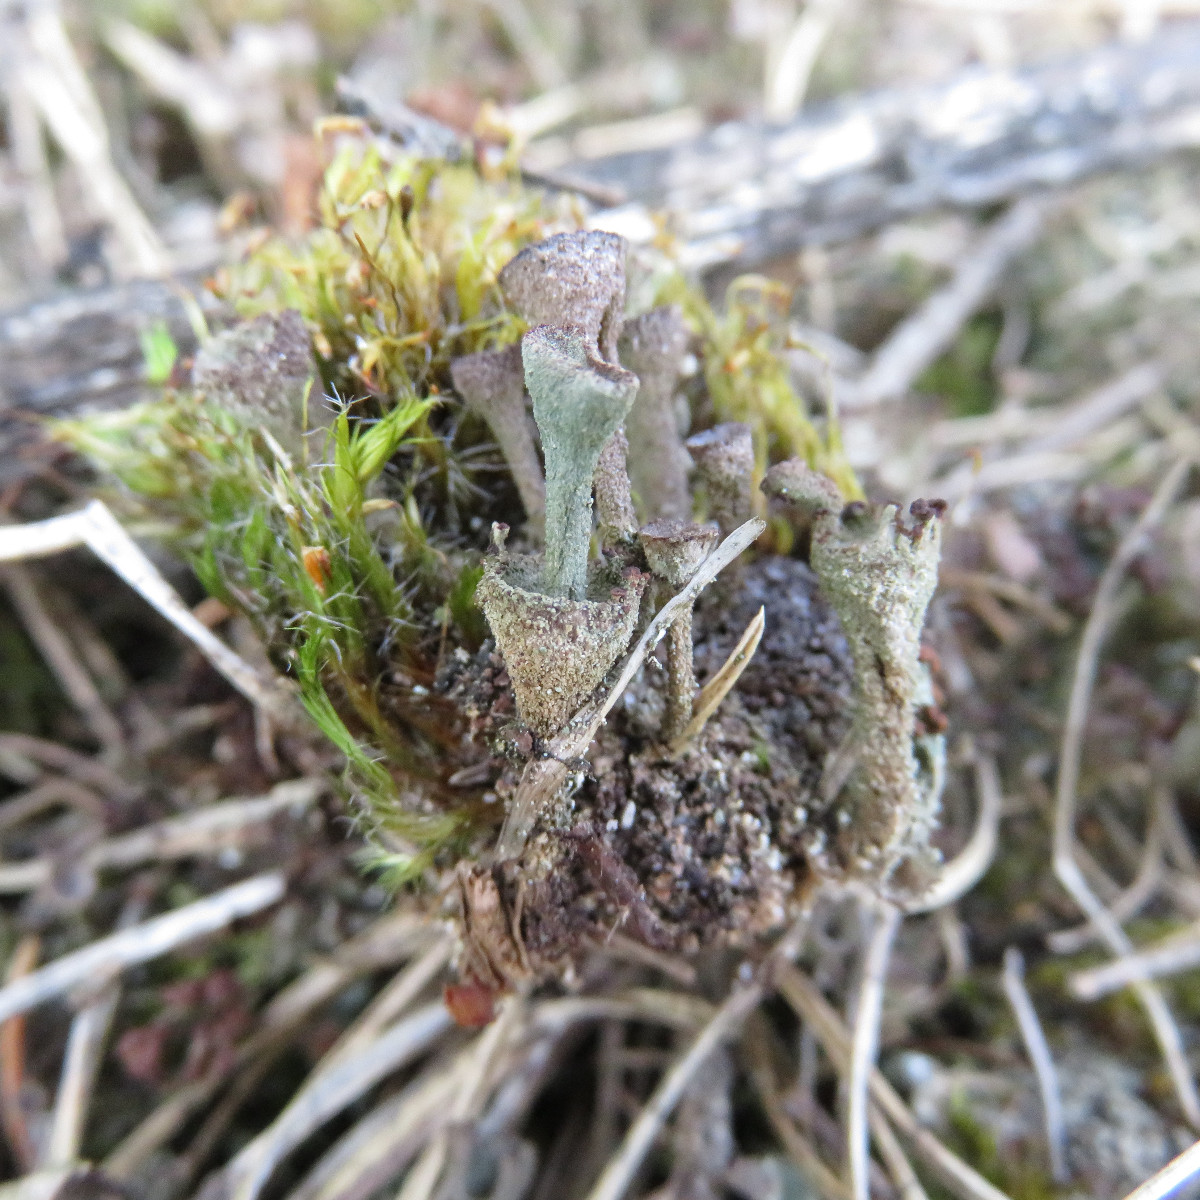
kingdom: Fungi
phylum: Ascomycota
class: Lecanoromycetes
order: Lecanorales
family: Cladoniaceae
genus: Cladonia
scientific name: Cladonia
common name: brungrøn bægerlav
